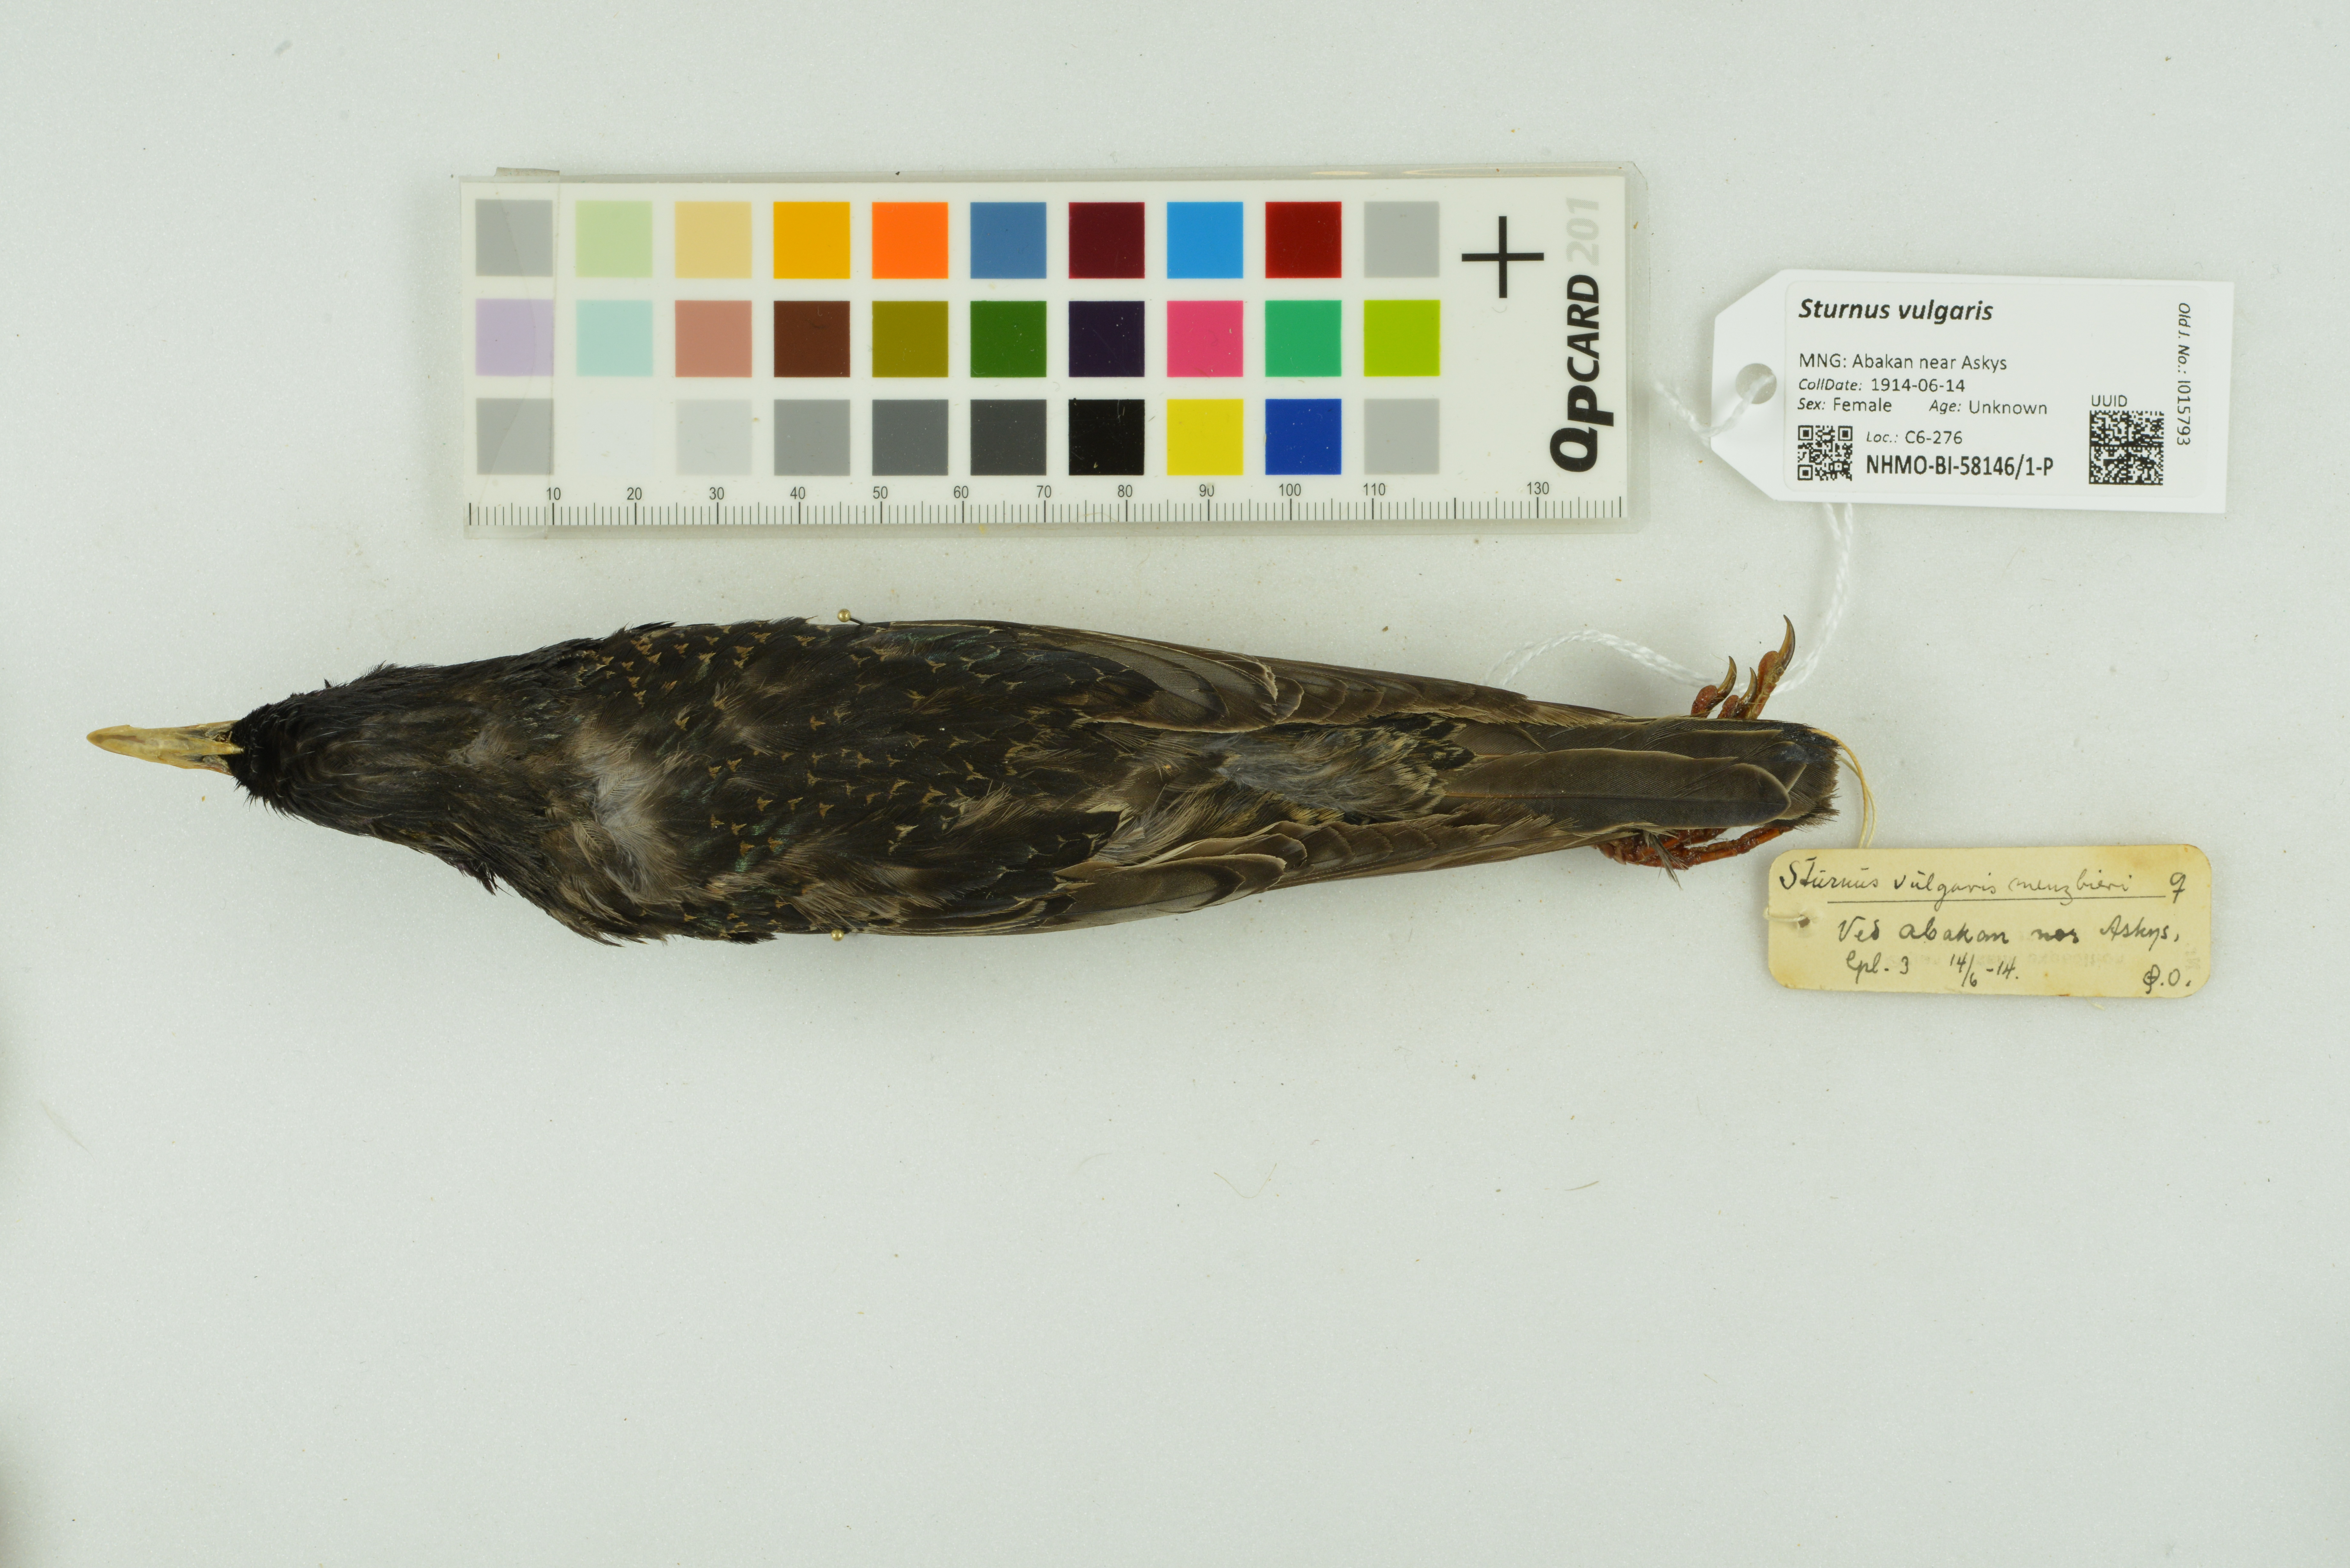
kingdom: Animalia
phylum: Chordata
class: Aves
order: Passeriformes
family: Sturnidae
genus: Sturnus
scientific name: Sturnus vulgaris
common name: Common starling
